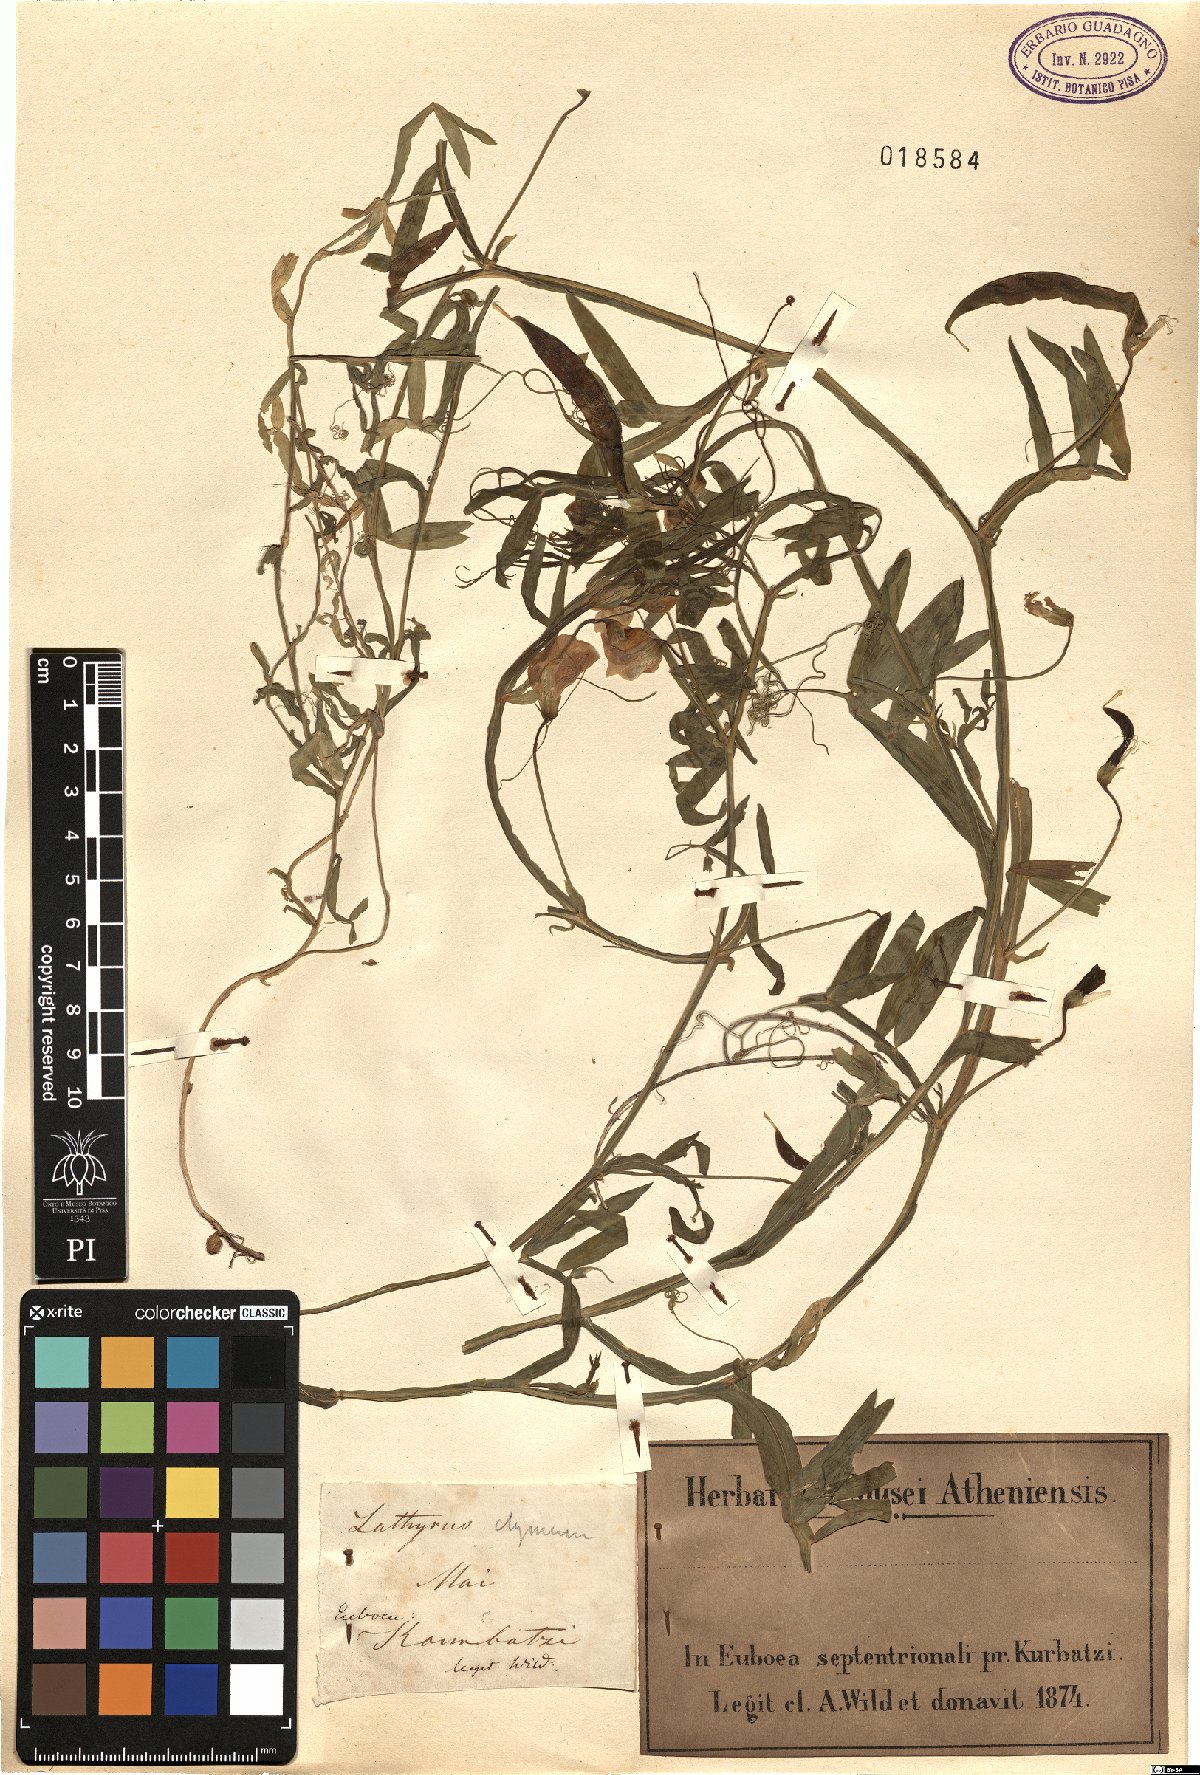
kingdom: Plantae
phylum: Tracheophyta
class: Magnoliopsida
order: Fabales
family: Fabaceae
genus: Lathyrus
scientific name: Lathyrus clymenum
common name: Spanish vetchling
